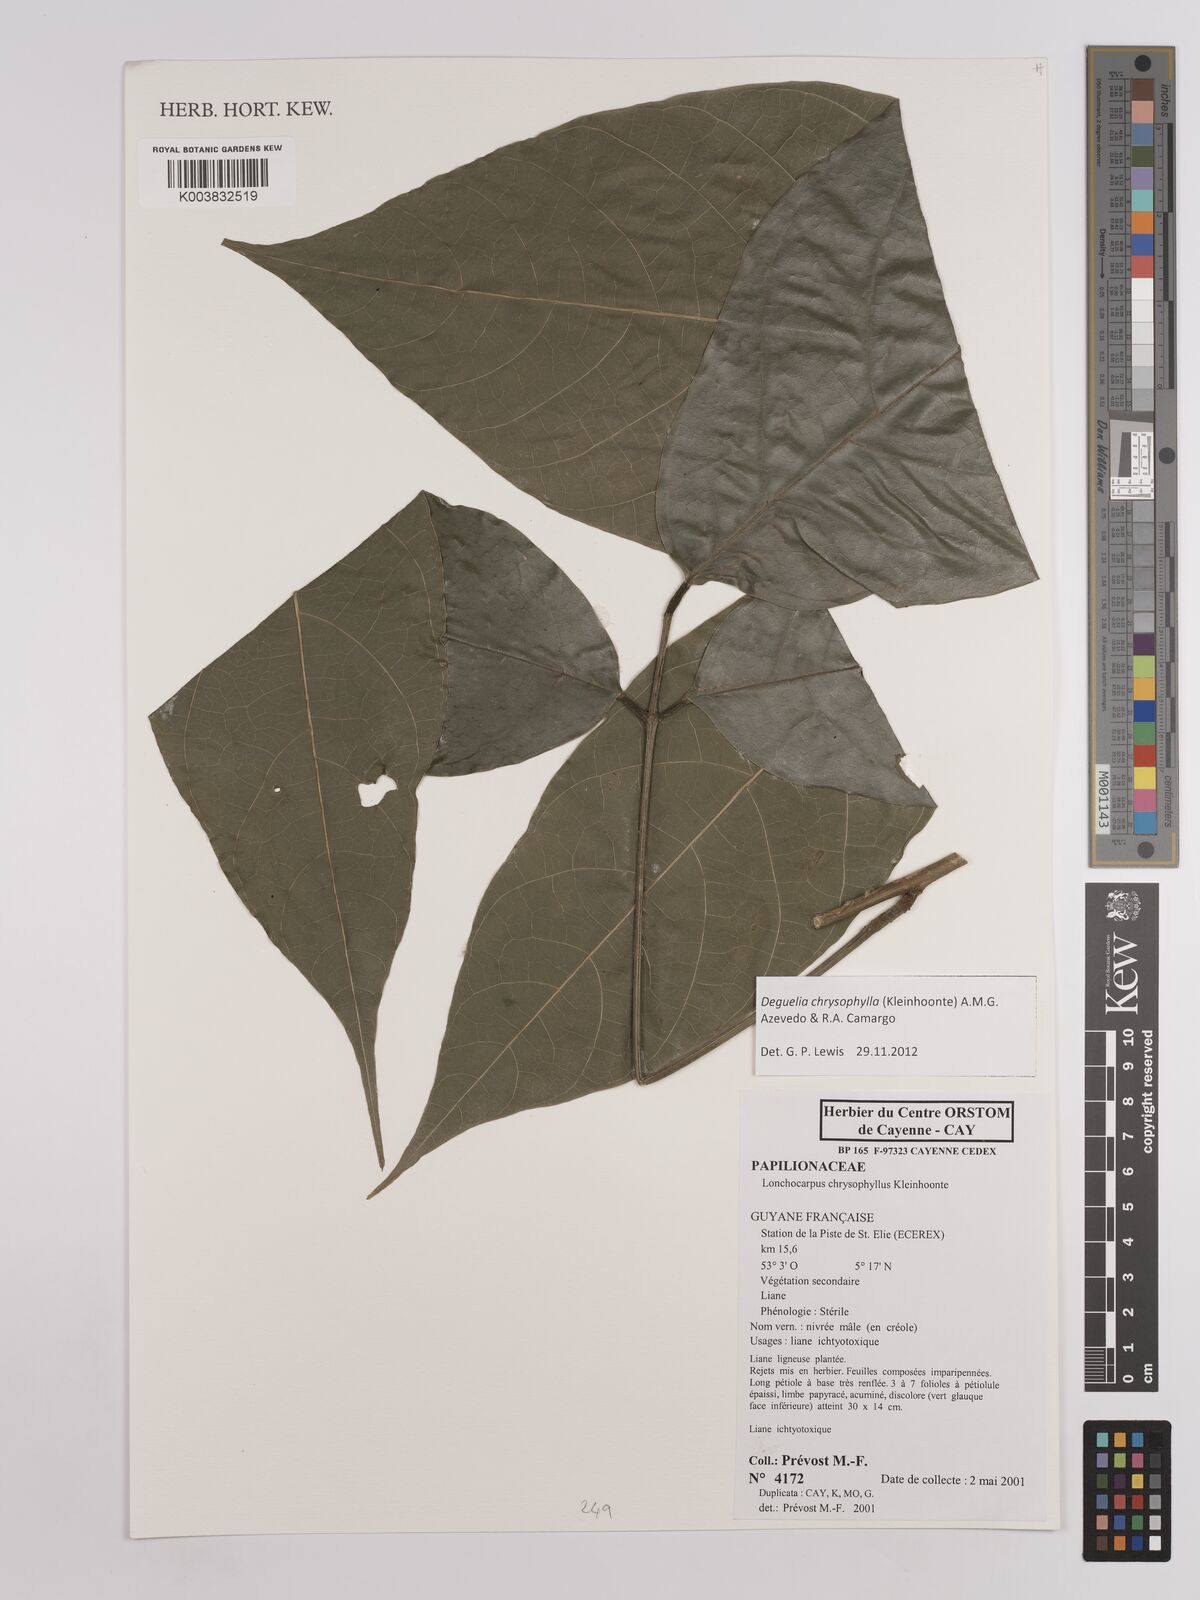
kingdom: Plantae
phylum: Tracheophyta
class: Magnoliopsida
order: Fabales
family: Fabaceae
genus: Deguelia
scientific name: Deguelia chrysophylla
